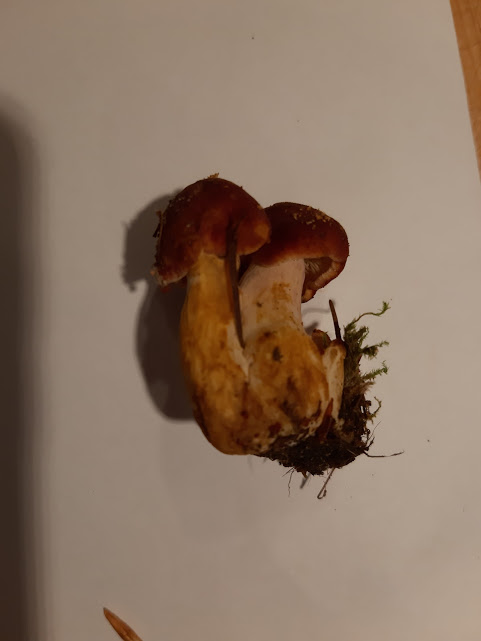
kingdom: Fungi
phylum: Basidiomycota
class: Agaricomycetes
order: Agaricales
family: Tricholomataceae
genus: Tricholomopsis
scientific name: Tricholomopsis rutilans
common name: purpur-væbnerhat
